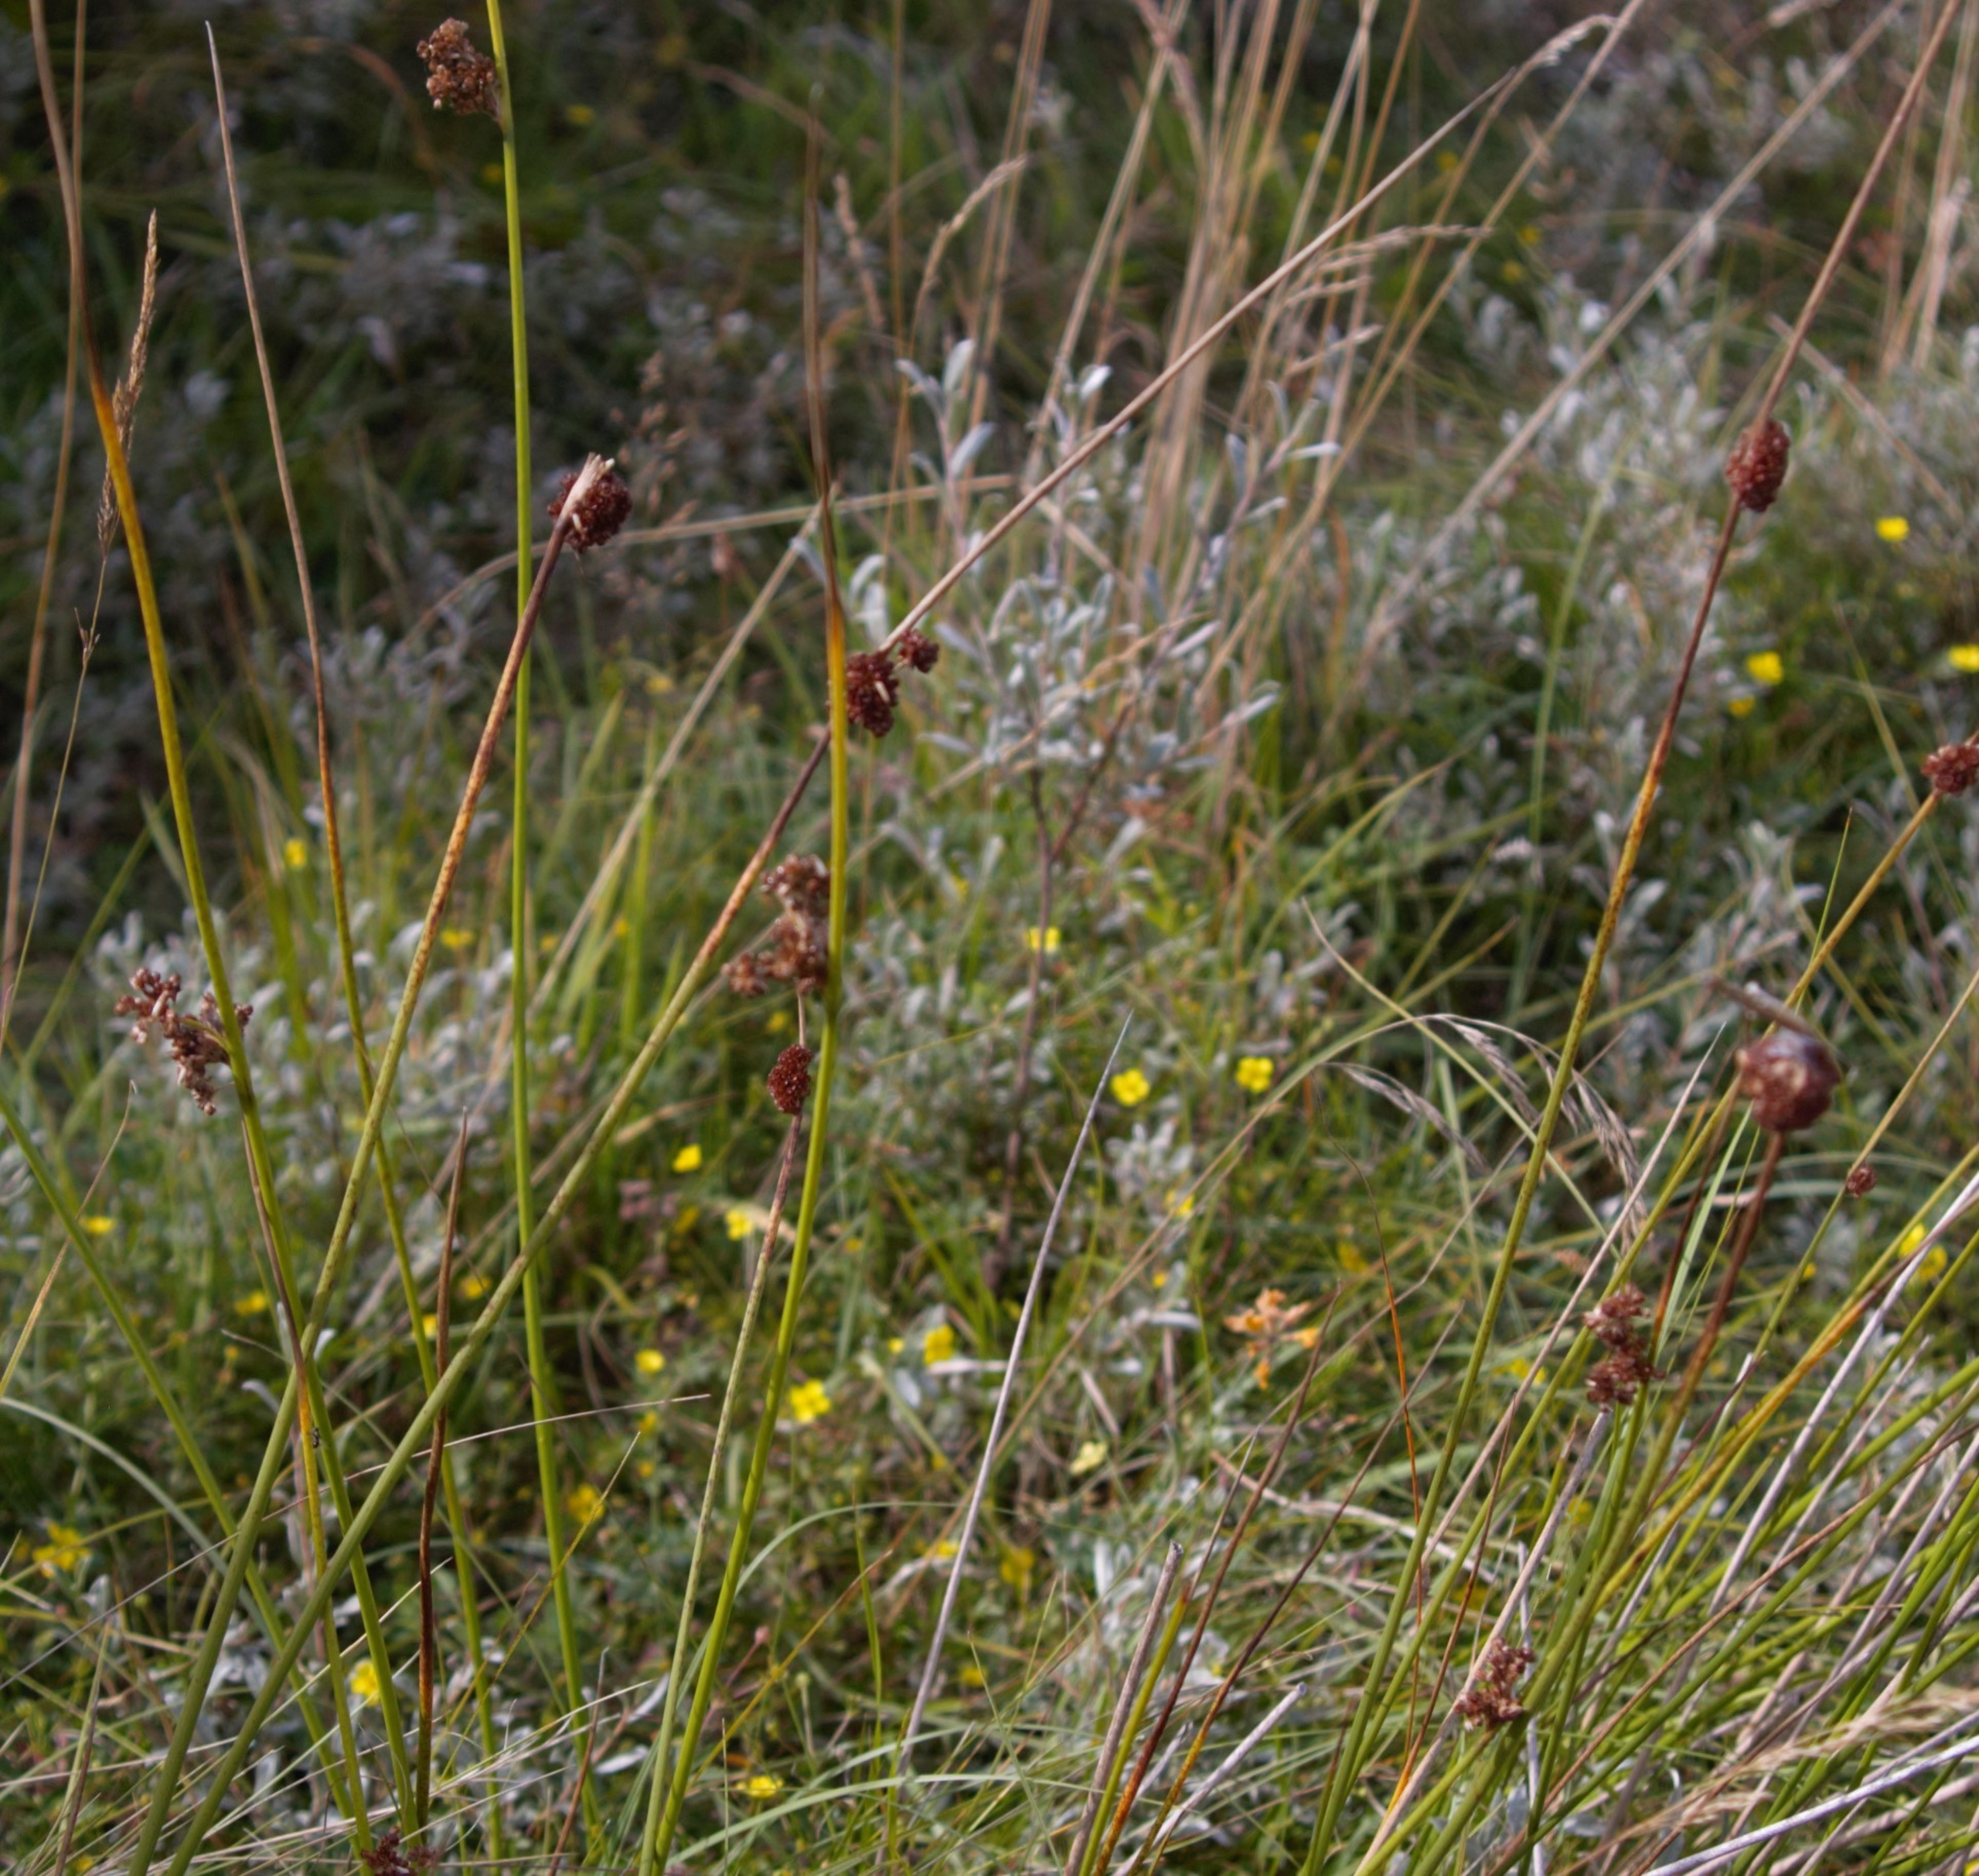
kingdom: Plantae
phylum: Tracheophyta
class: Liliopsida
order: Poales
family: Juncaceae
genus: Juncus
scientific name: Juncus conglomeratus
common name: Knop-siv
